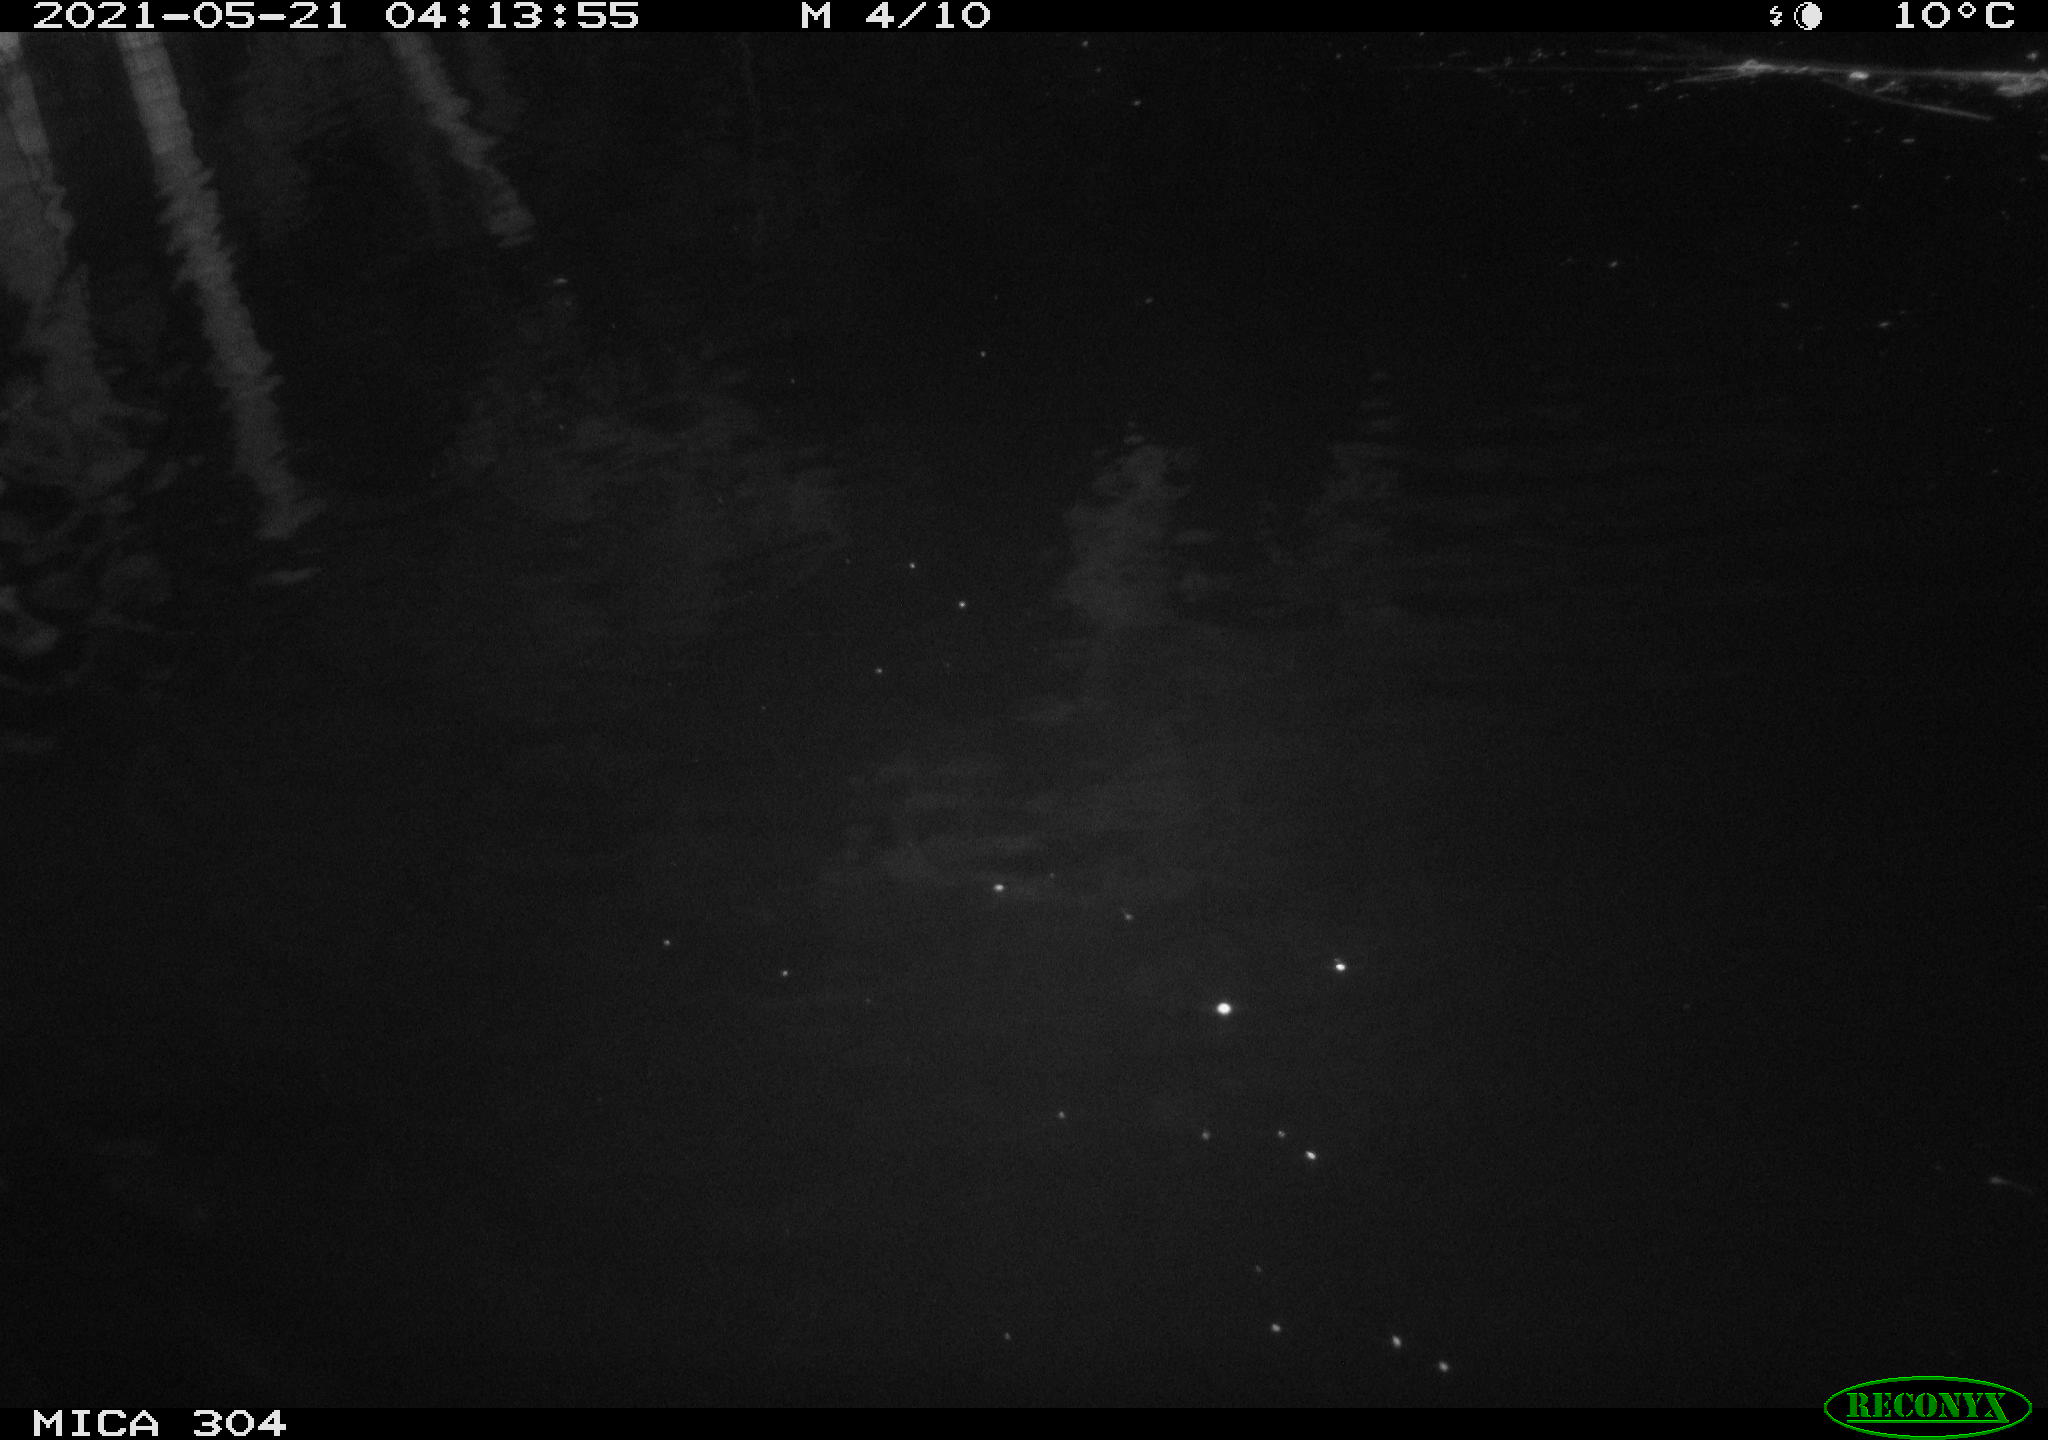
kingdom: Animalia
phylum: Chordata
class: Aves
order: Anseriformes
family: Anatidae
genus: Anas
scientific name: Anas platyrhynchos
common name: Mallard
